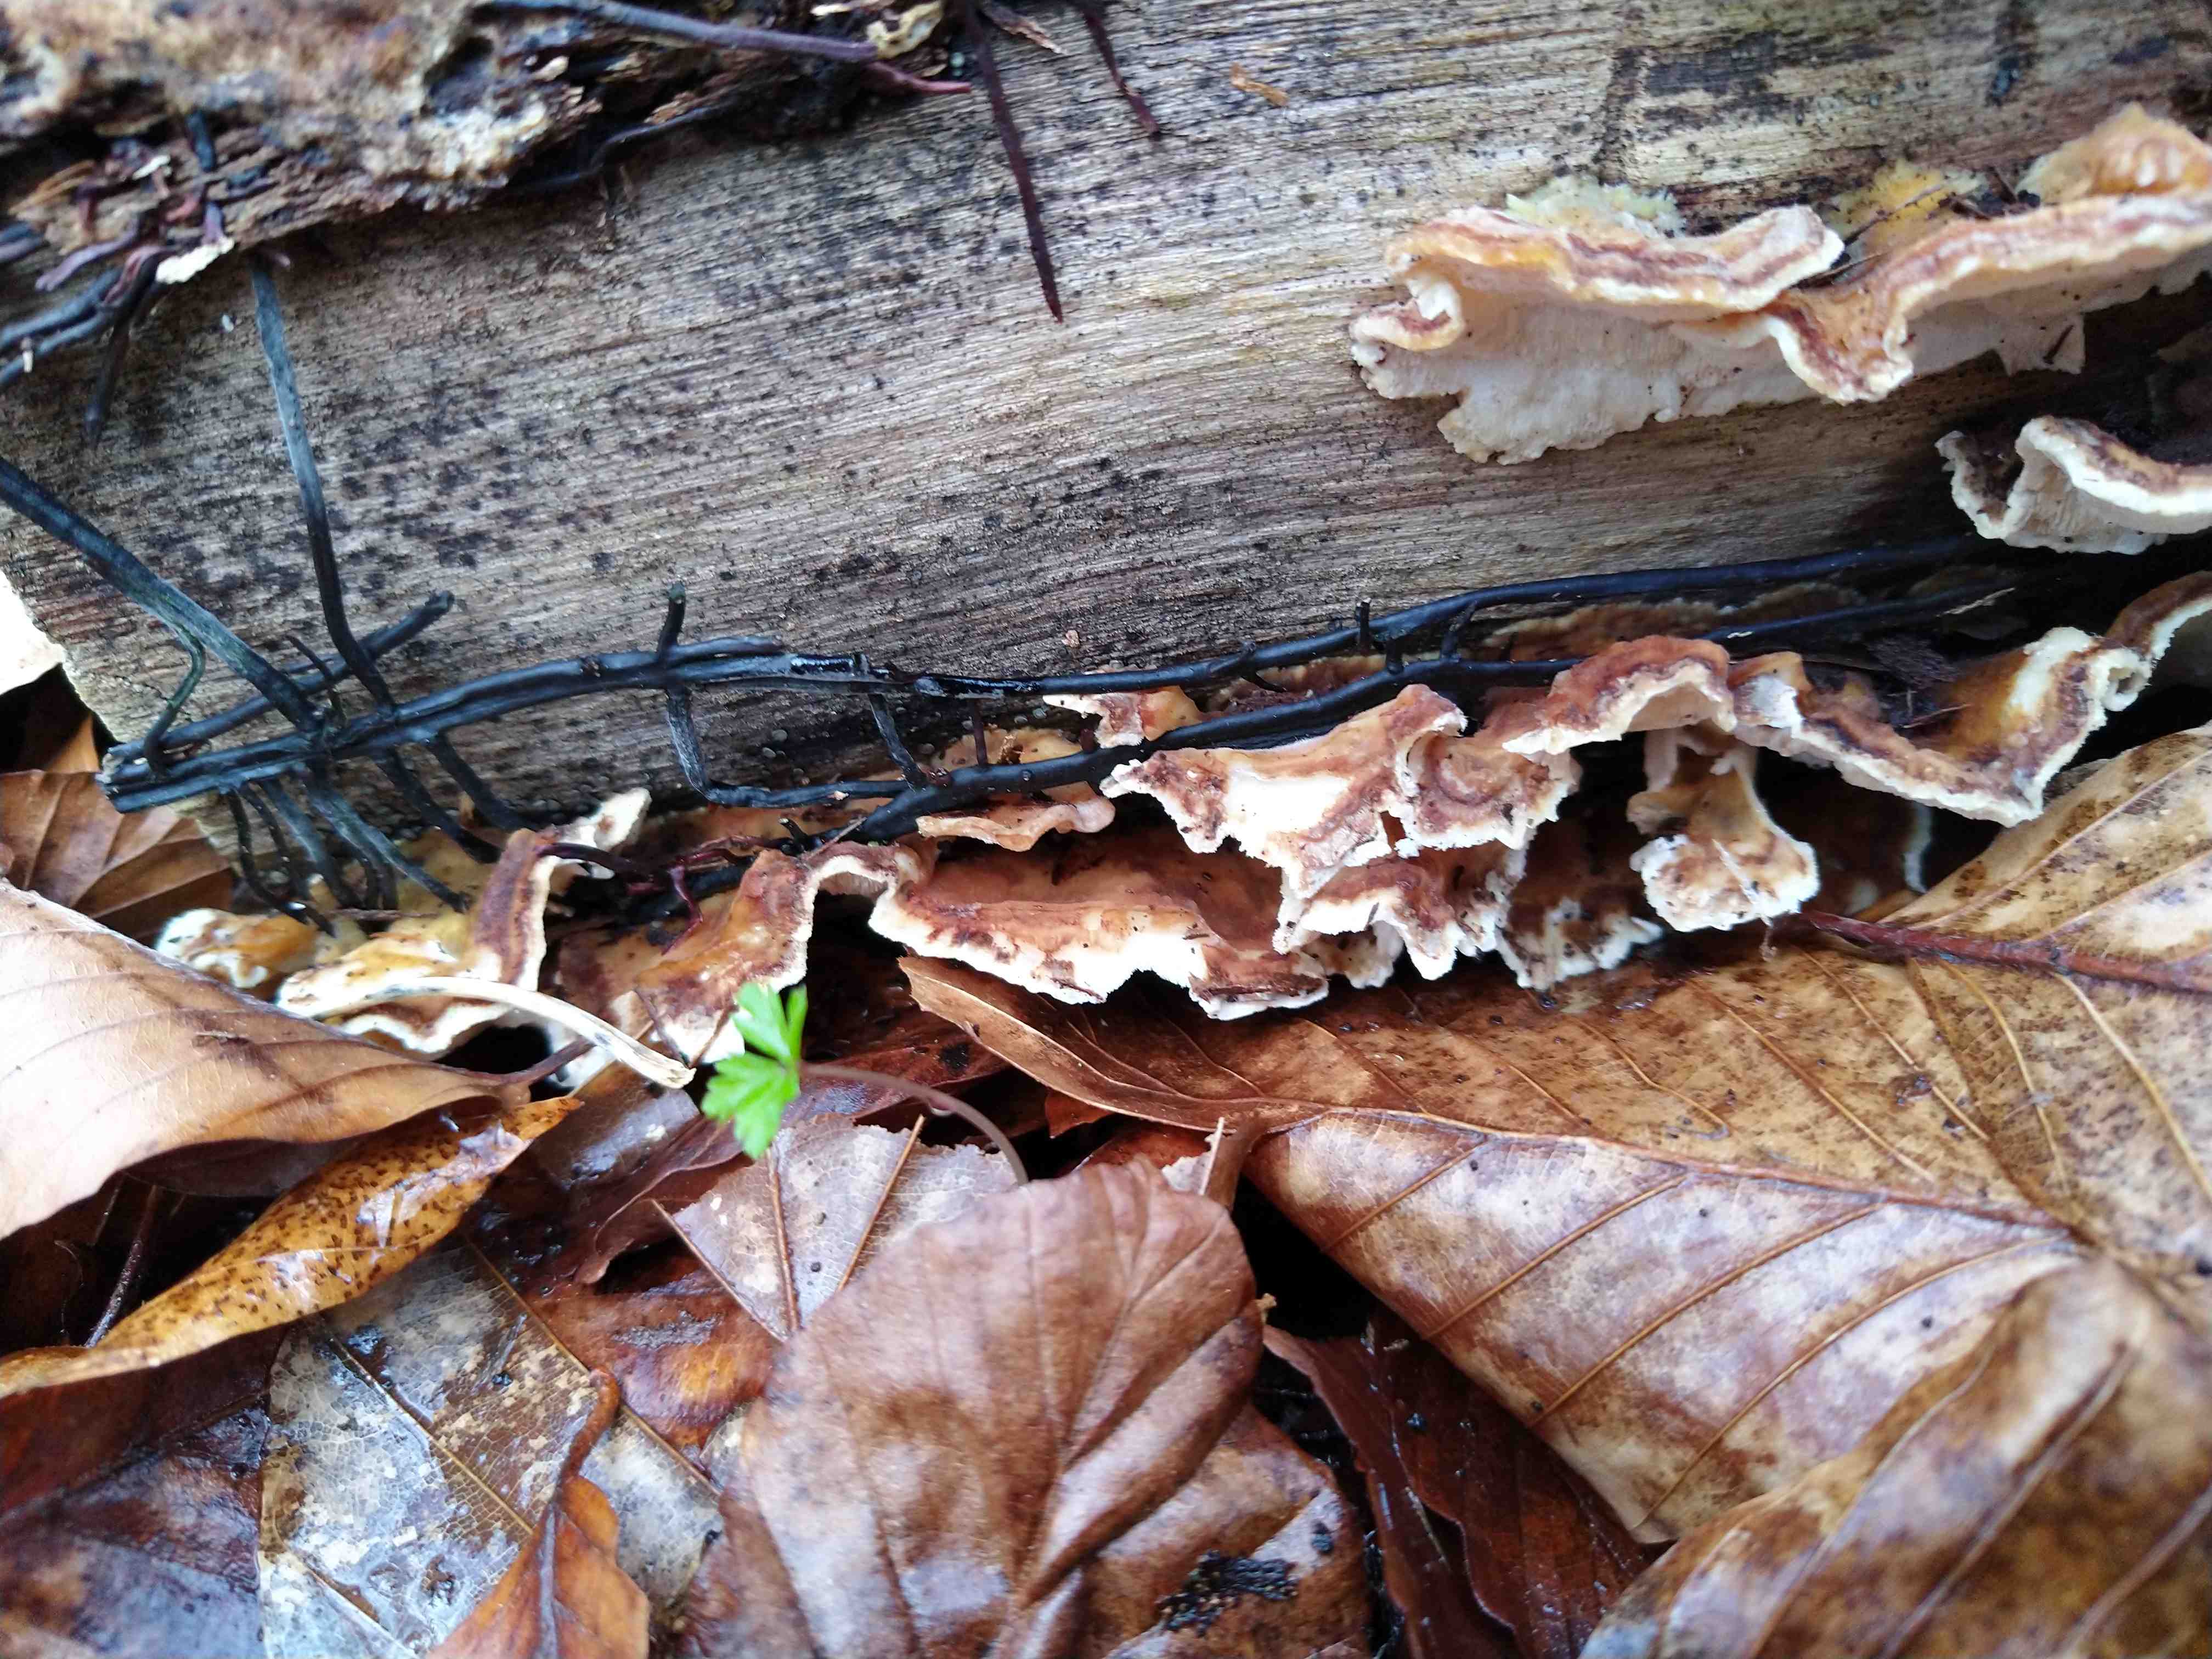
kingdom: Fungi
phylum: Basidiomycota
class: Agaricomycetes
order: Polyporales
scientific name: Polyporales
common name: poresvampordenen
